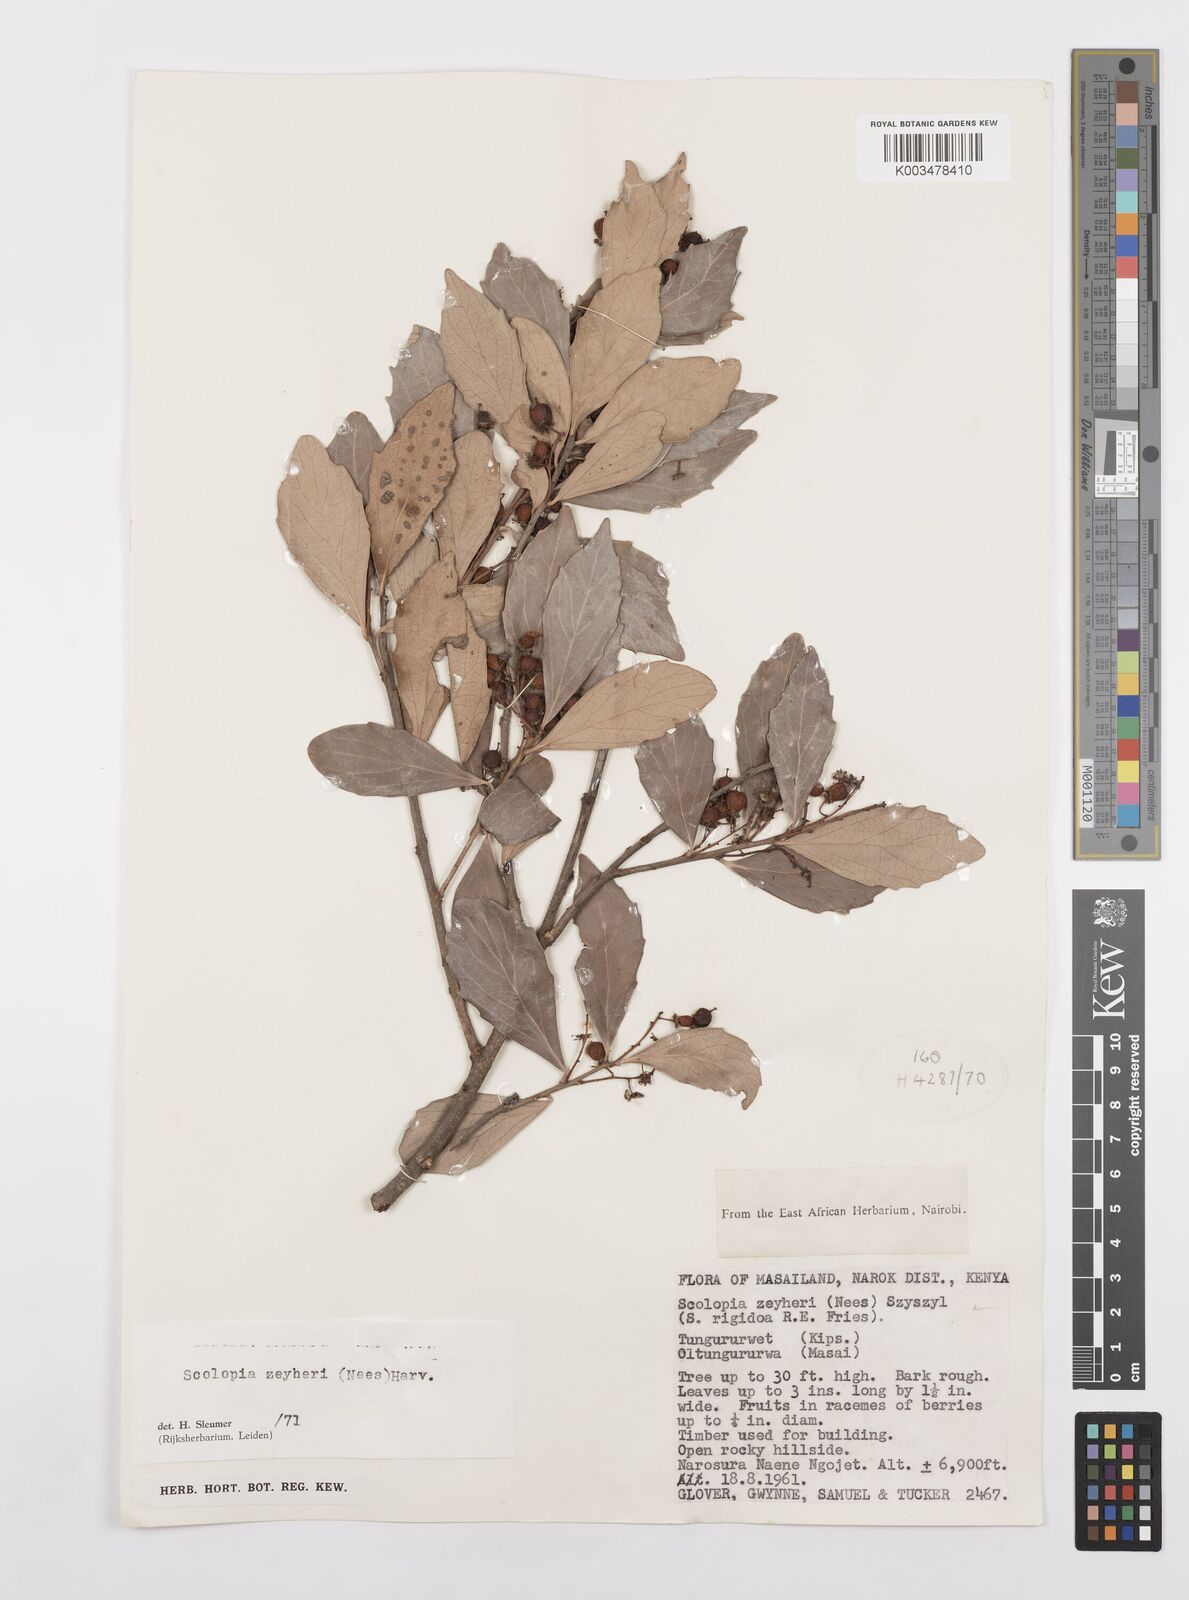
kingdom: Plantae
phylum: Tracheophyta
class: Magnoliopsida
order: Malpighiales
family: Salicaceae
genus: Scolopia
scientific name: Scolopia zeyheri
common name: Thorn pear
